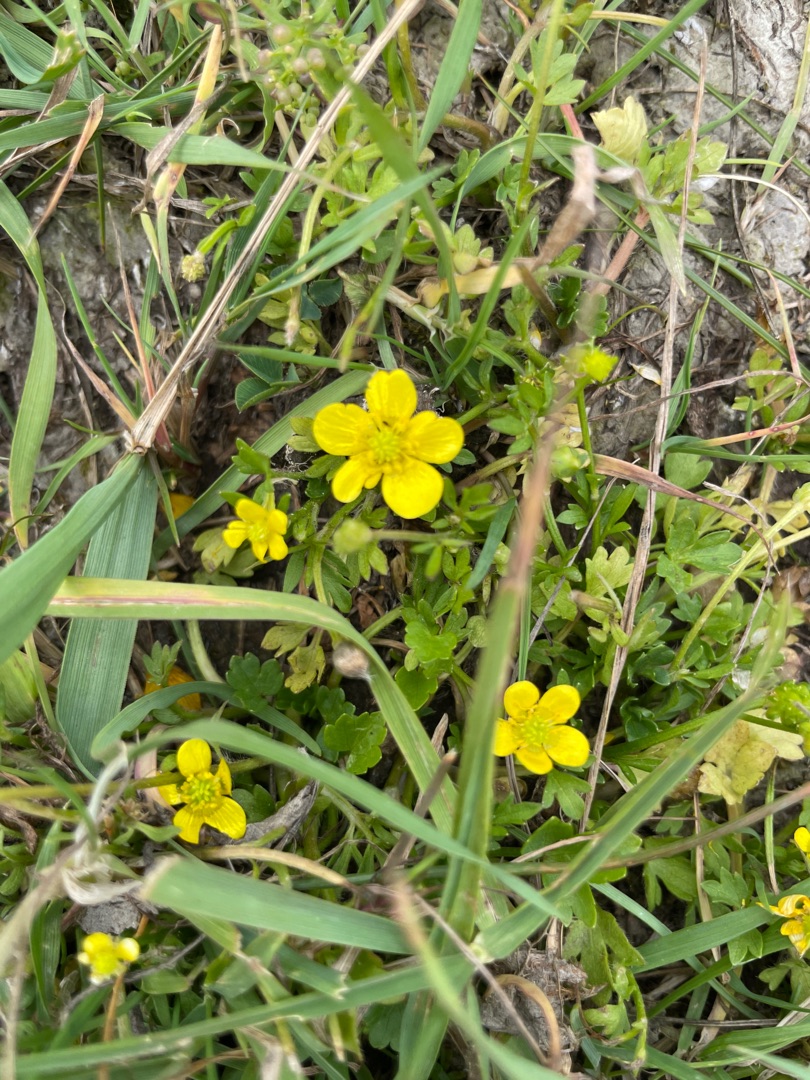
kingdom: Plantae
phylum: Tracheophyta
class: Magnoliopsida
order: Ranunculales
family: Ranunculaceae
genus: Ranunculus
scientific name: Ranunculus sardous
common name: Stivhåret ranunkel
